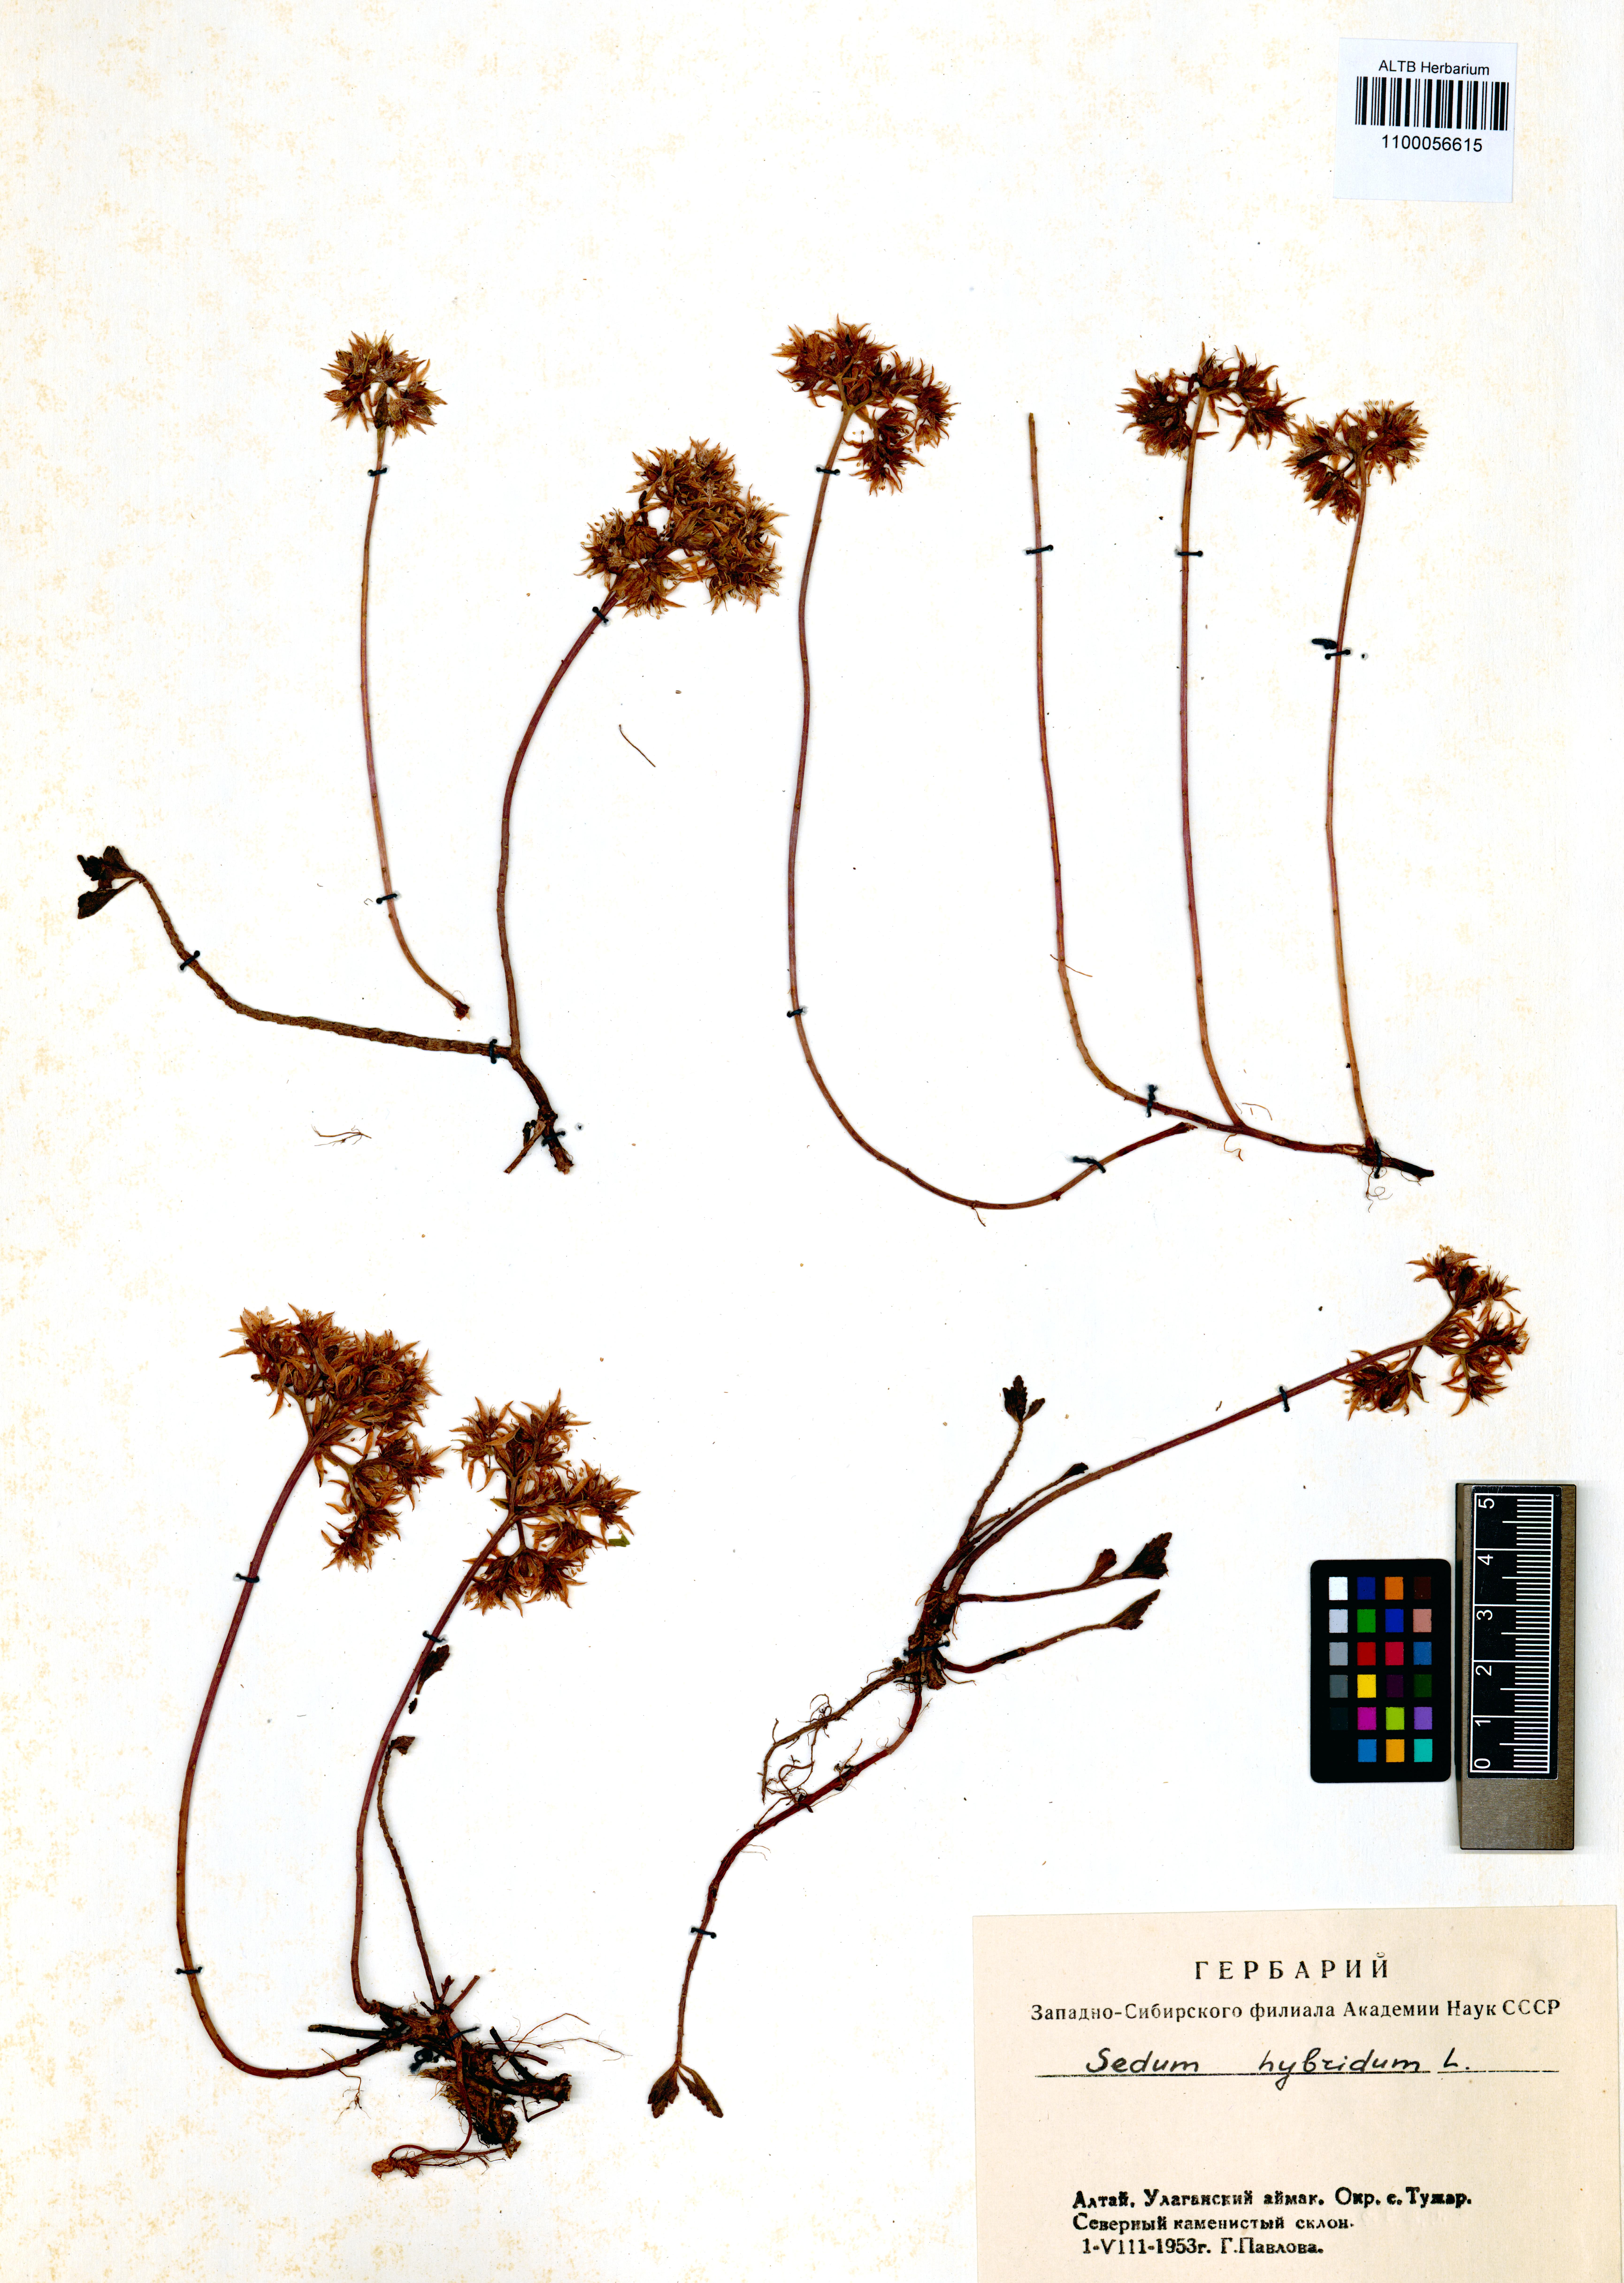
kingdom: Plantae
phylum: Tracheophyta
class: Magnoliopsida
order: Saxifragales
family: Crassulaceae
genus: Phedimus
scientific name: Phedimus hybridus
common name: Hybrid stonecrop
